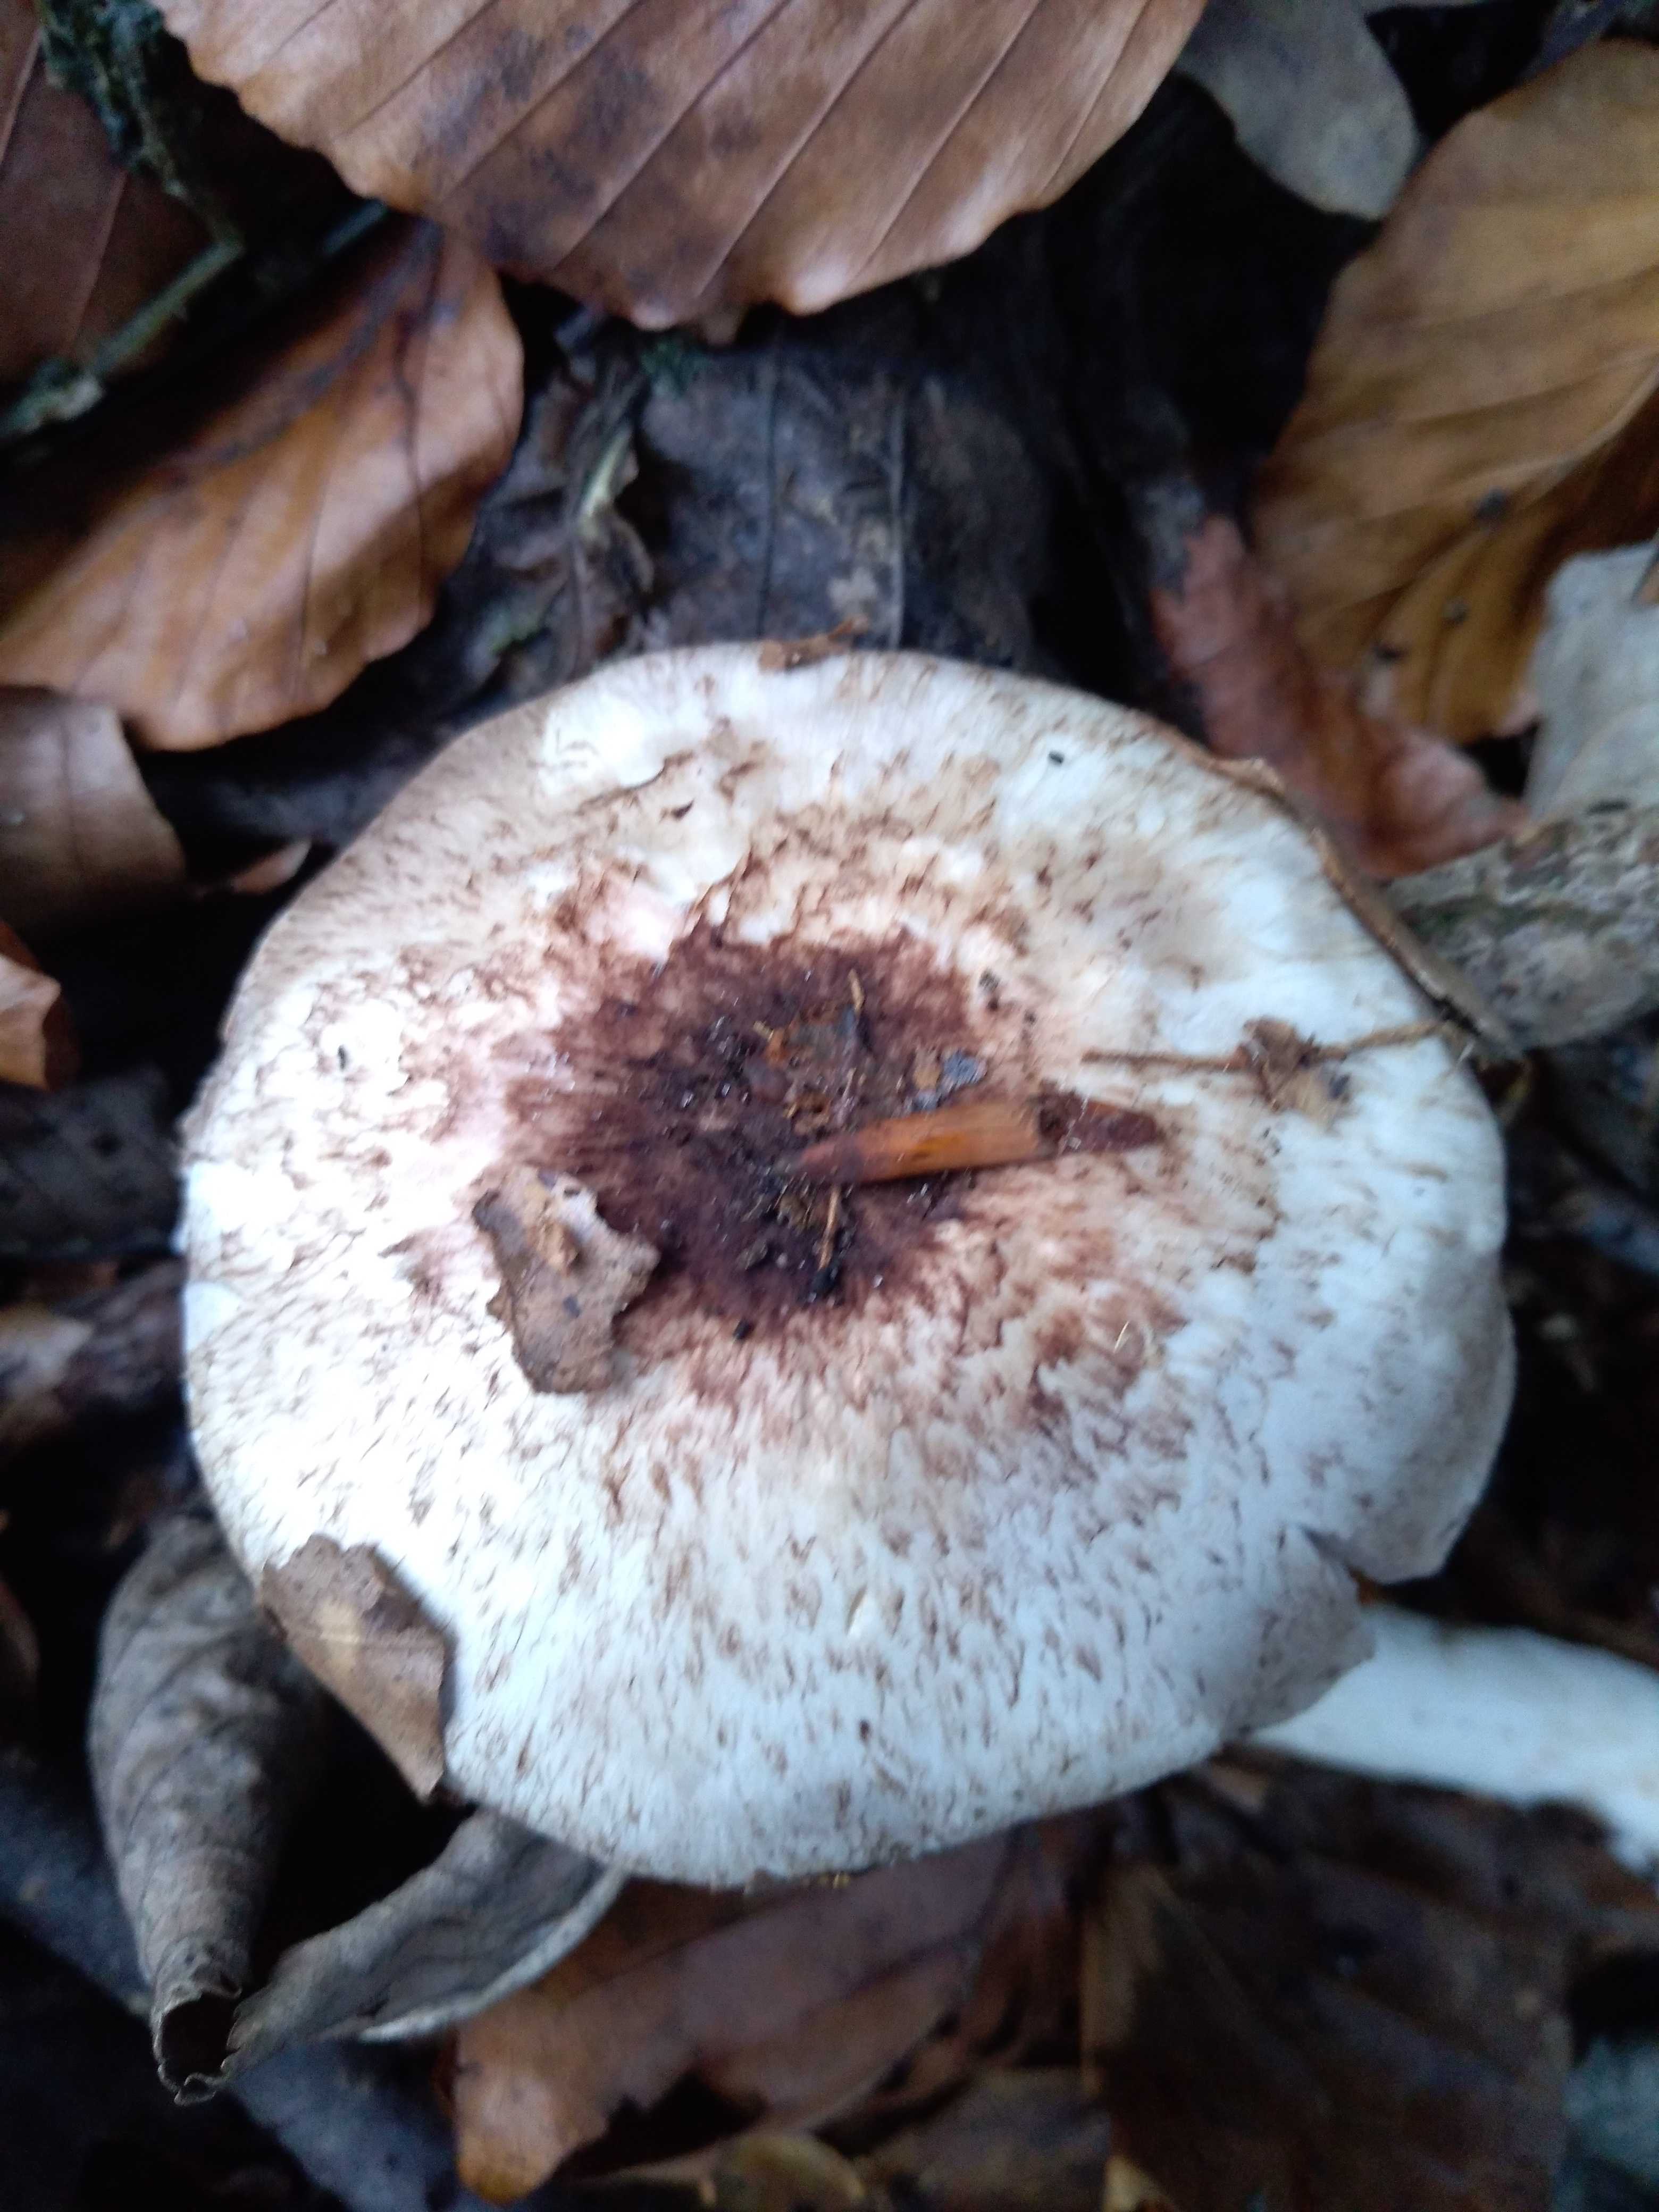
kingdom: Fungi
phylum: Basidiomycota
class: Agaricomycetes
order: Agaricales
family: Agaricaceae
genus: Agaricus
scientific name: Agaricus
